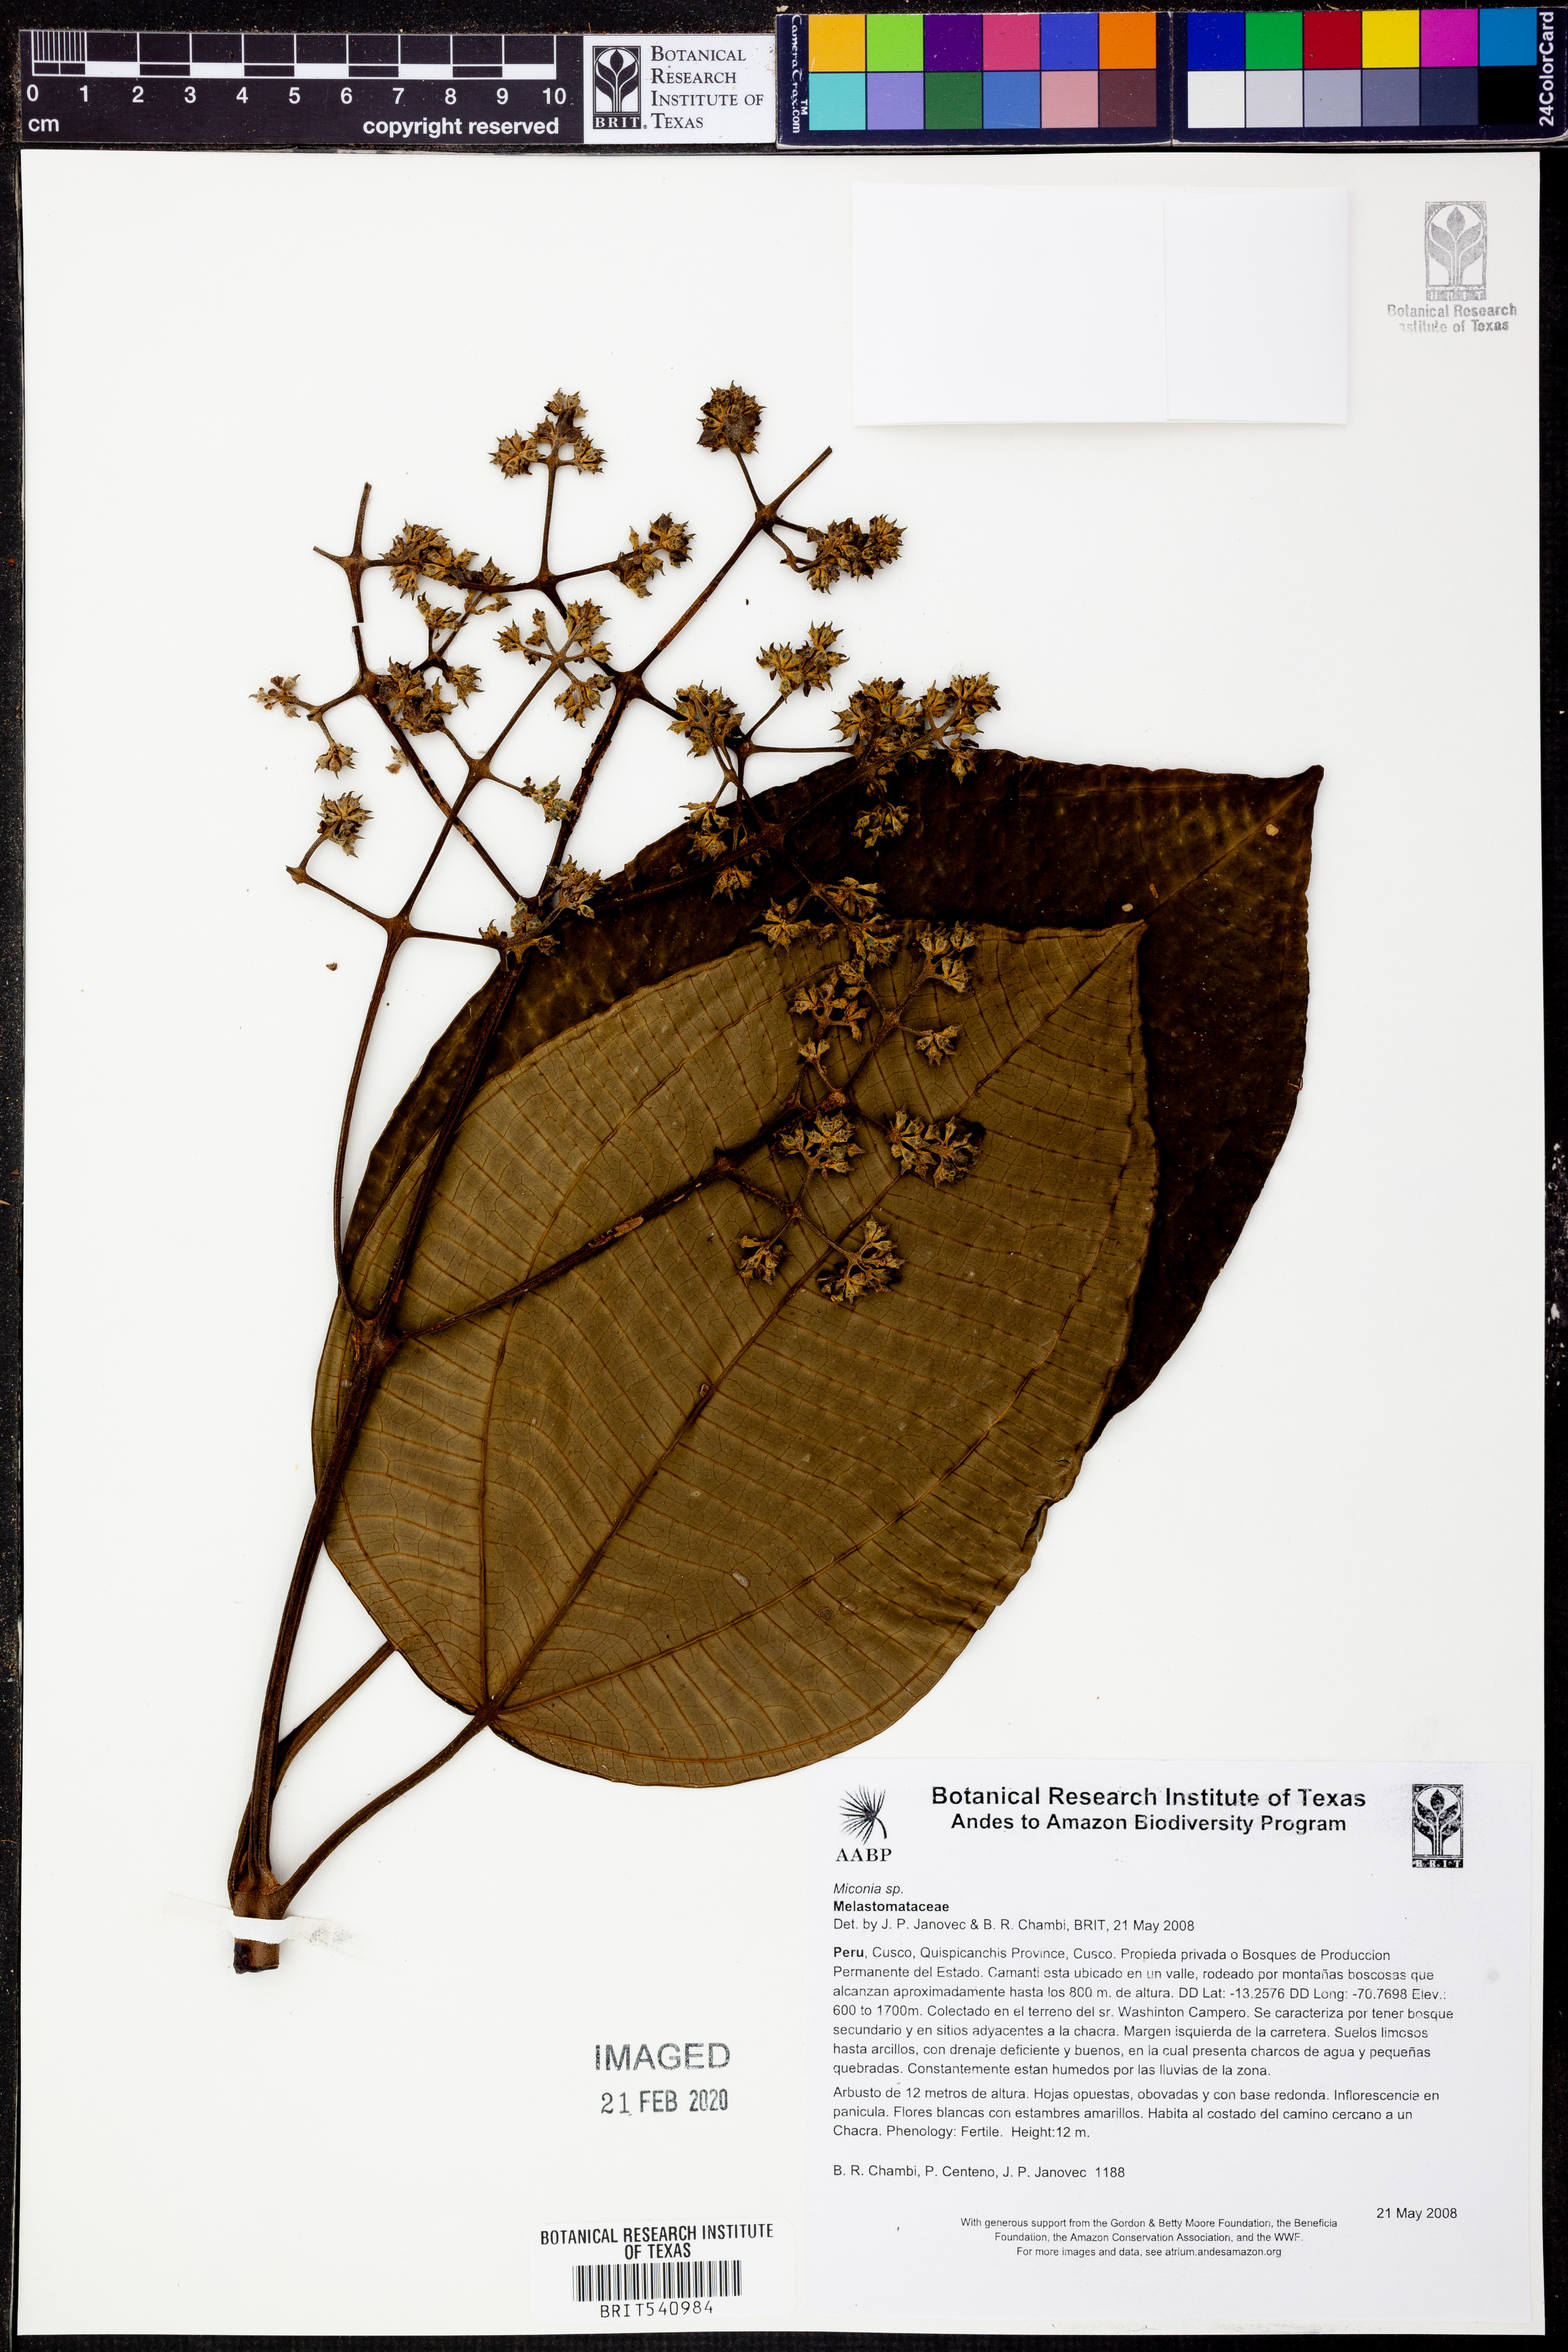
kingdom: Plantae
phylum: Tracheophyta
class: Magnoliopsida
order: Myrtales
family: Melastomataceae
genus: Miconia
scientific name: Miconia
